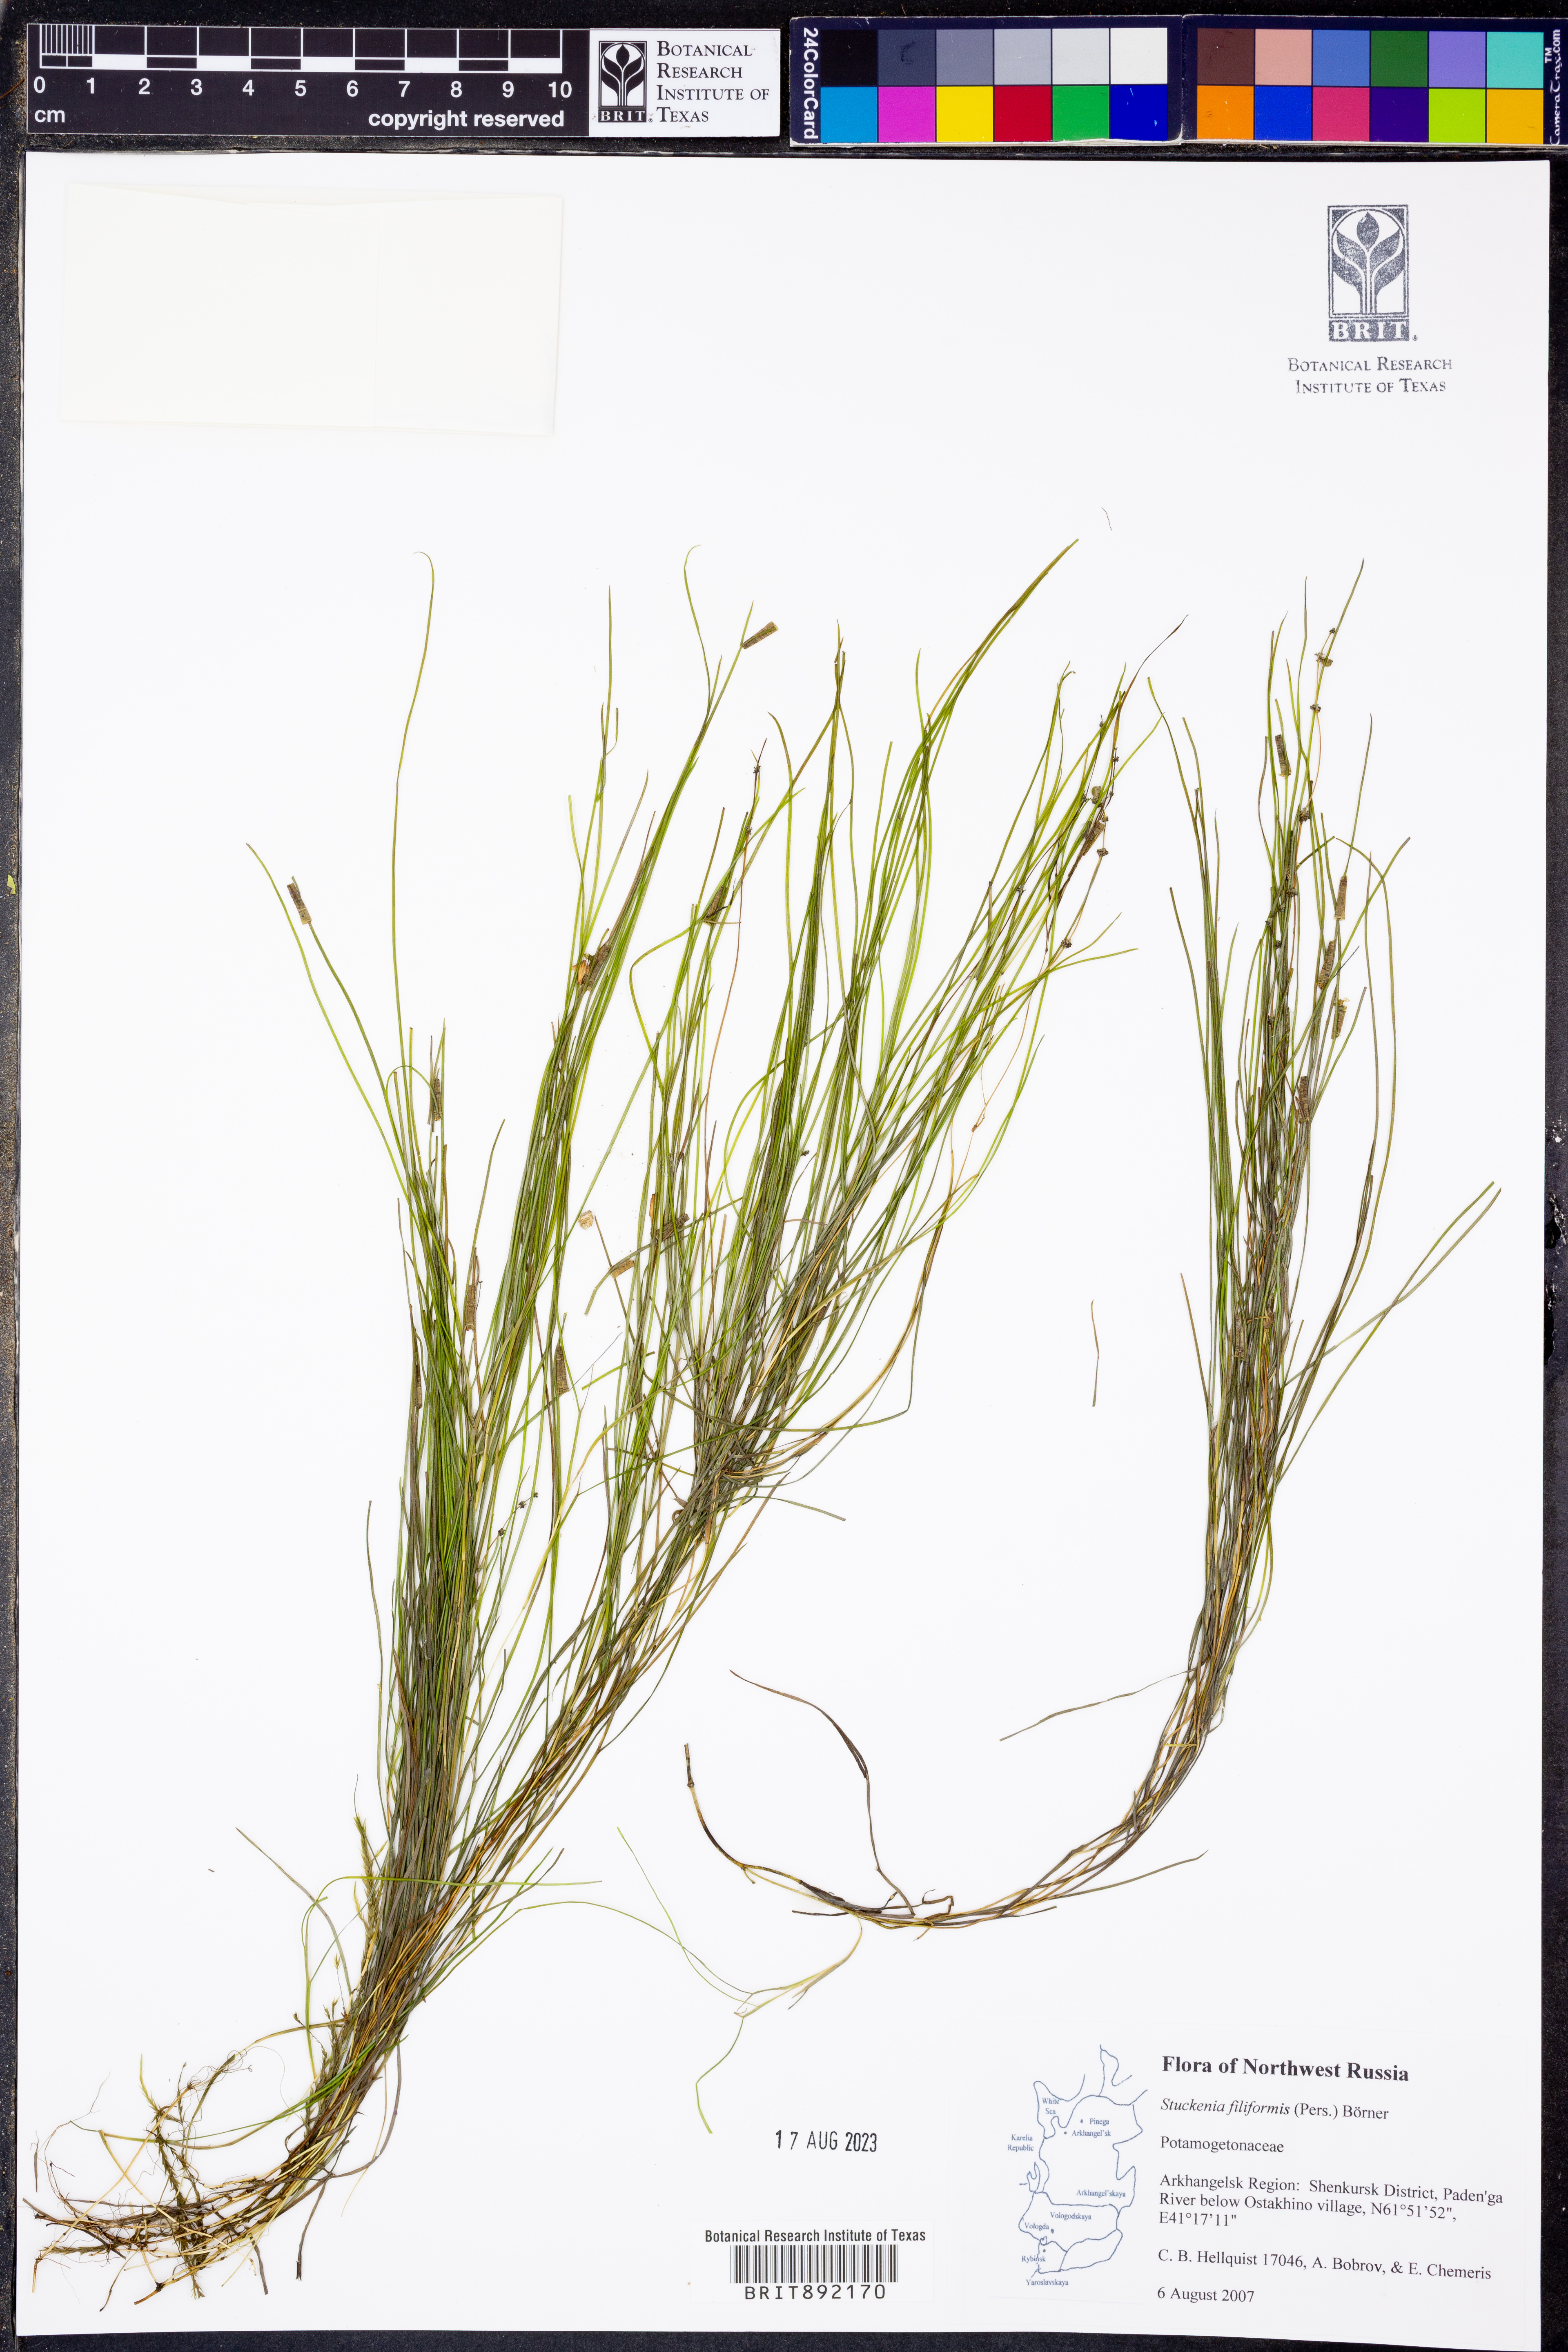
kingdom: Plantae
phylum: Tracheophyta
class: Liliopsida
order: Alismatales
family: Potamogetonaceae
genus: Stuckenia
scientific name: Stuckenia filiformis
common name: Alpine thread-leaved pondweed
